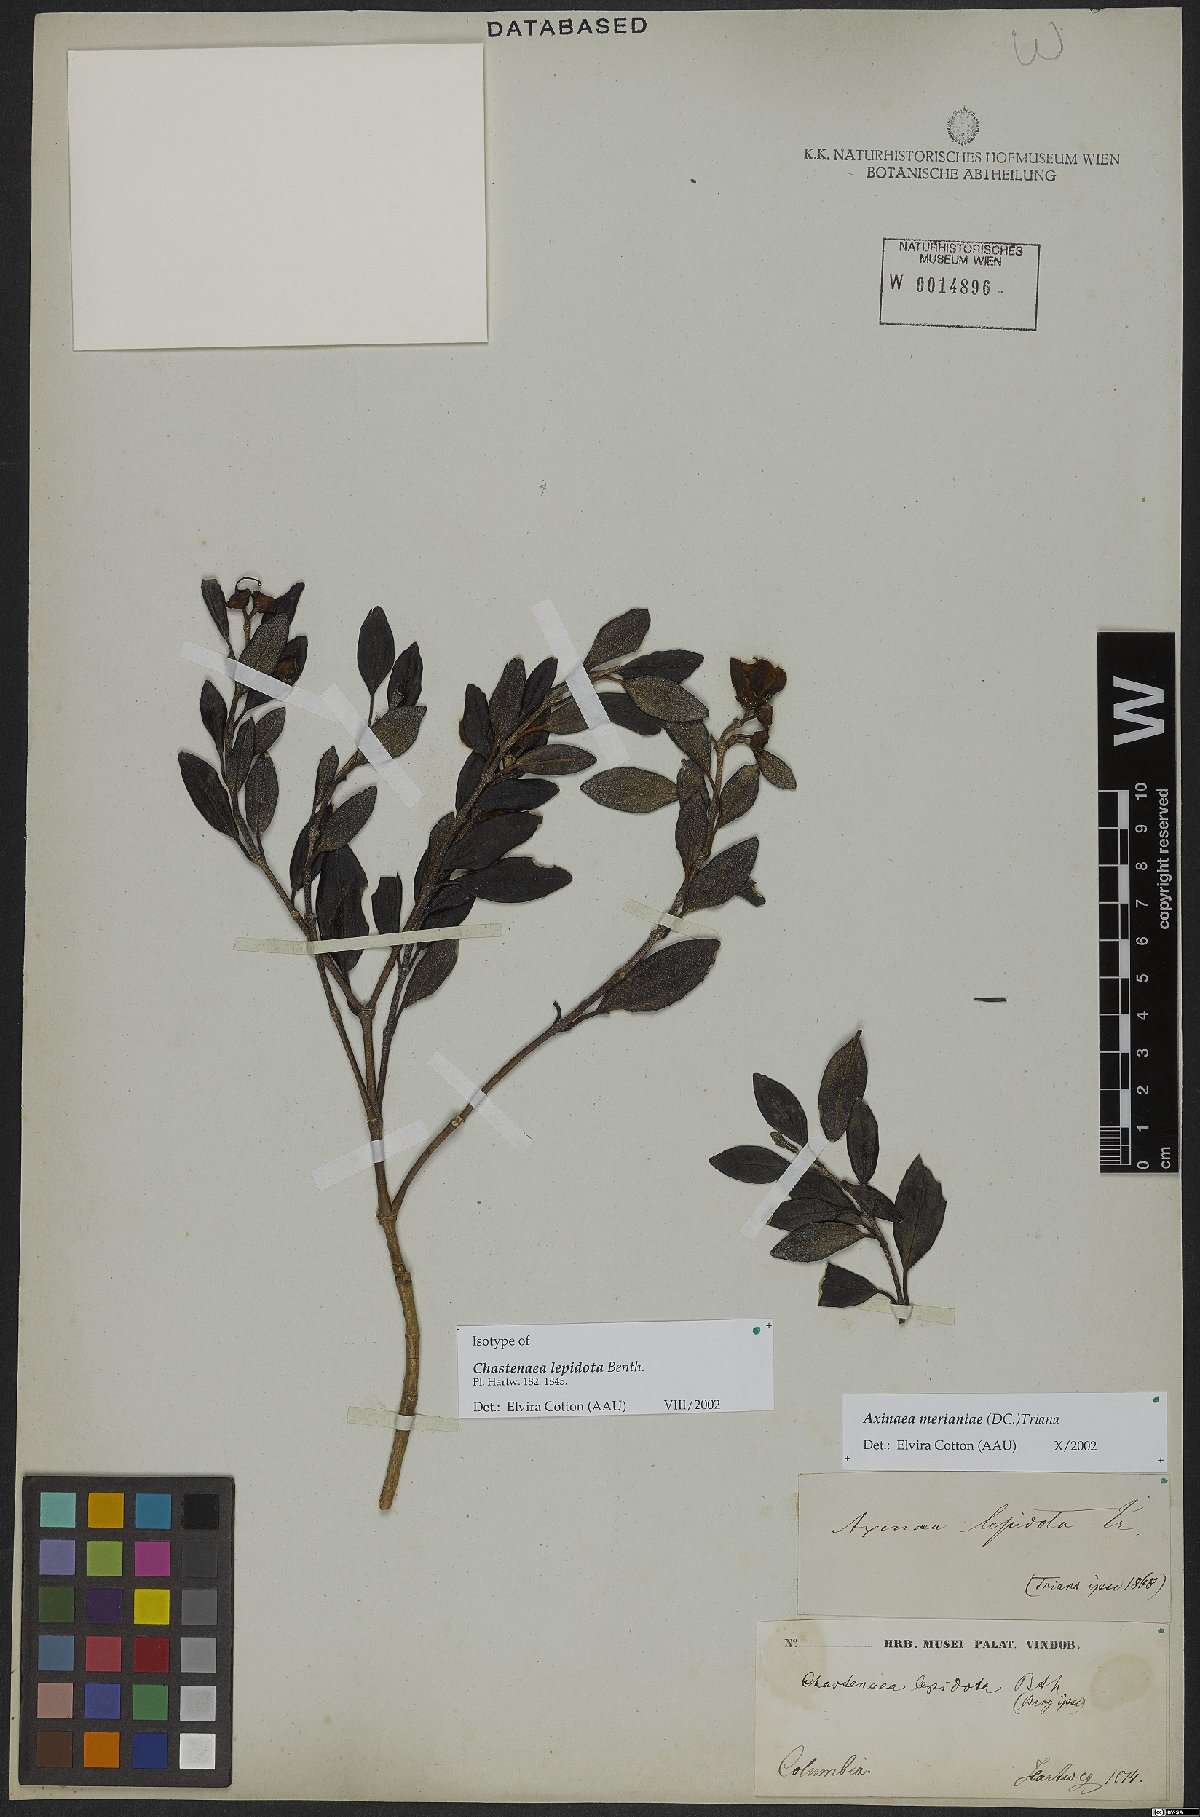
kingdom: Plantae
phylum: Tracheophyta
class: Magnoliopsida
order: Myrtales
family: Melastomataceae
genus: Axinaea
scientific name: Axinaea merianiae
